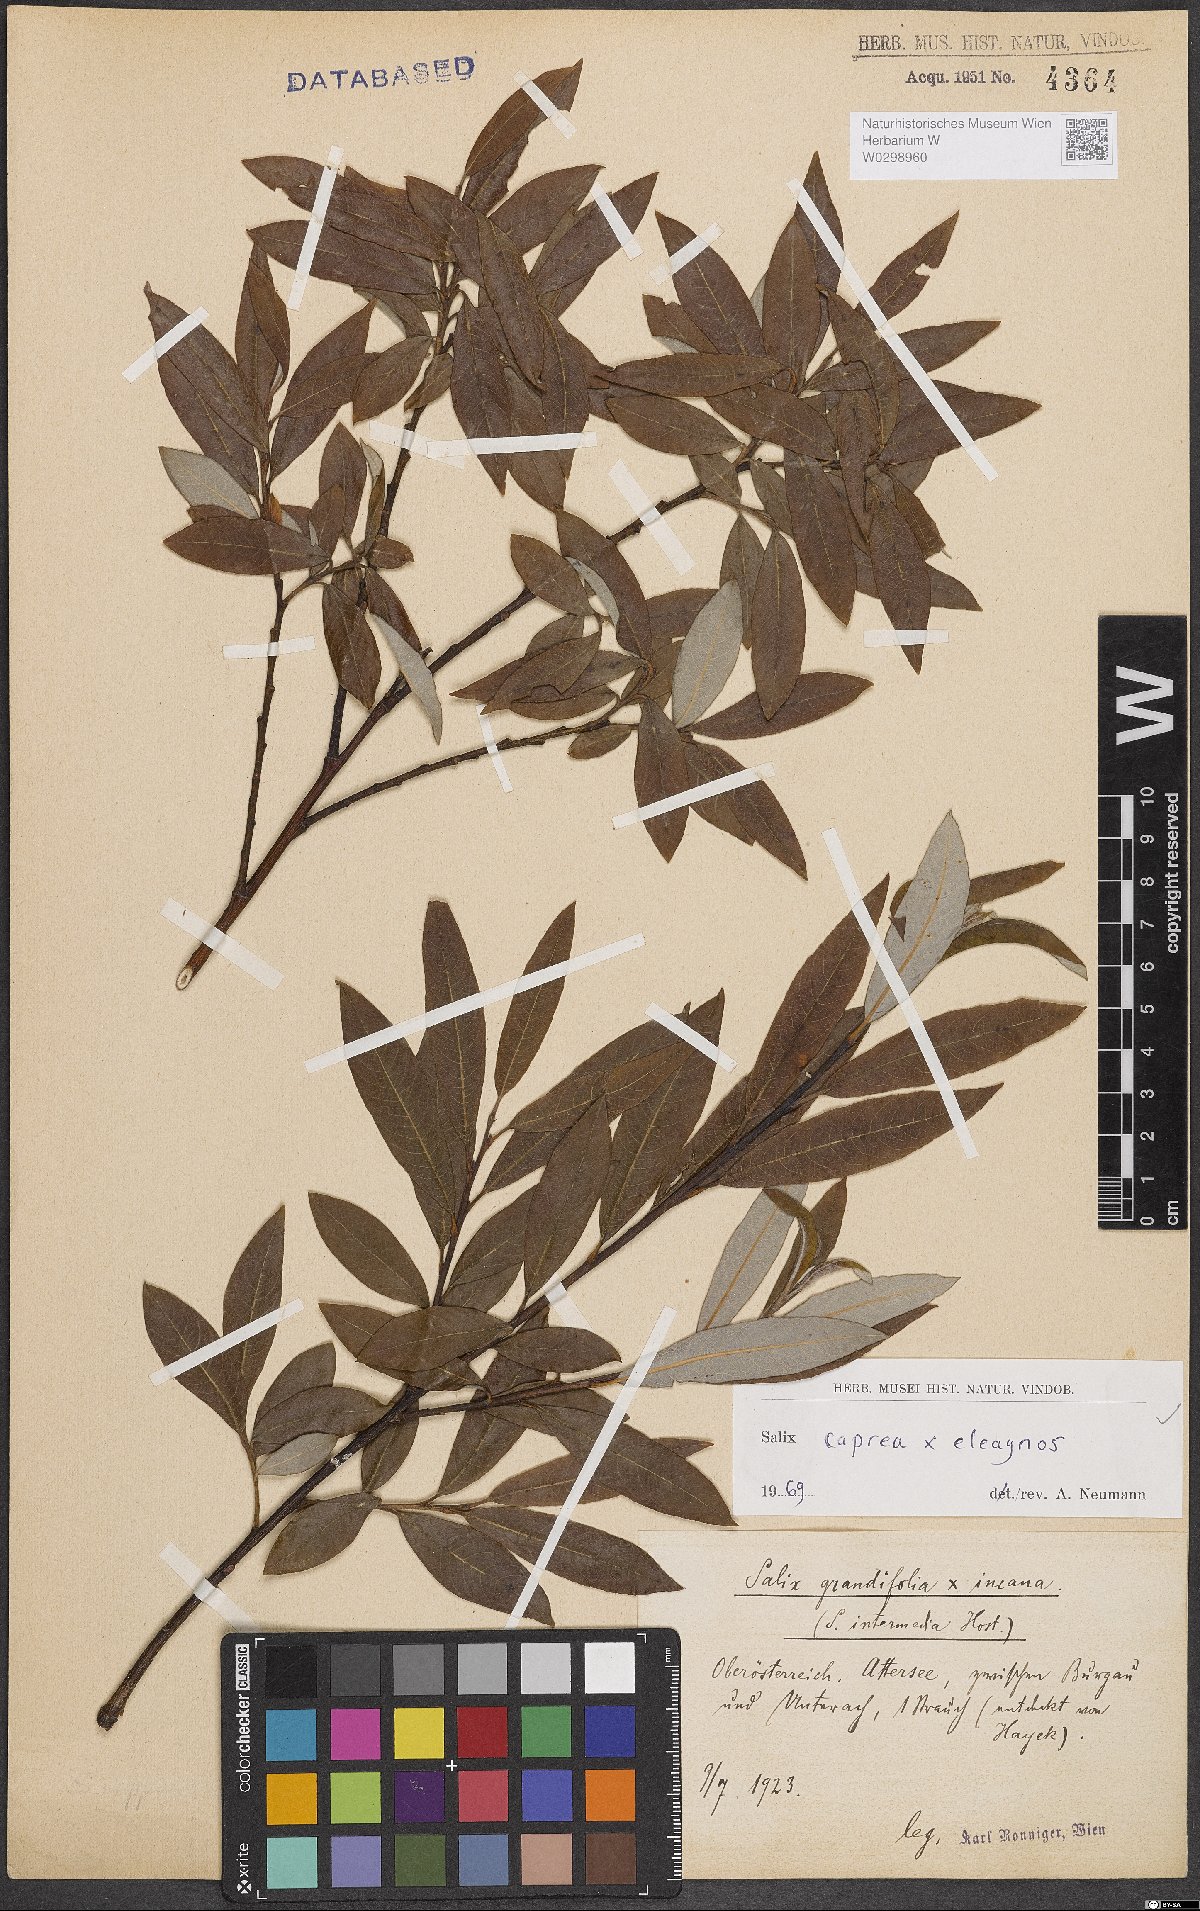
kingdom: Plantae
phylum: Tracheophyta
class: Magnoliopsida
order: Malpighiales
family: Salicaceae
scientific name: Salicaceae
